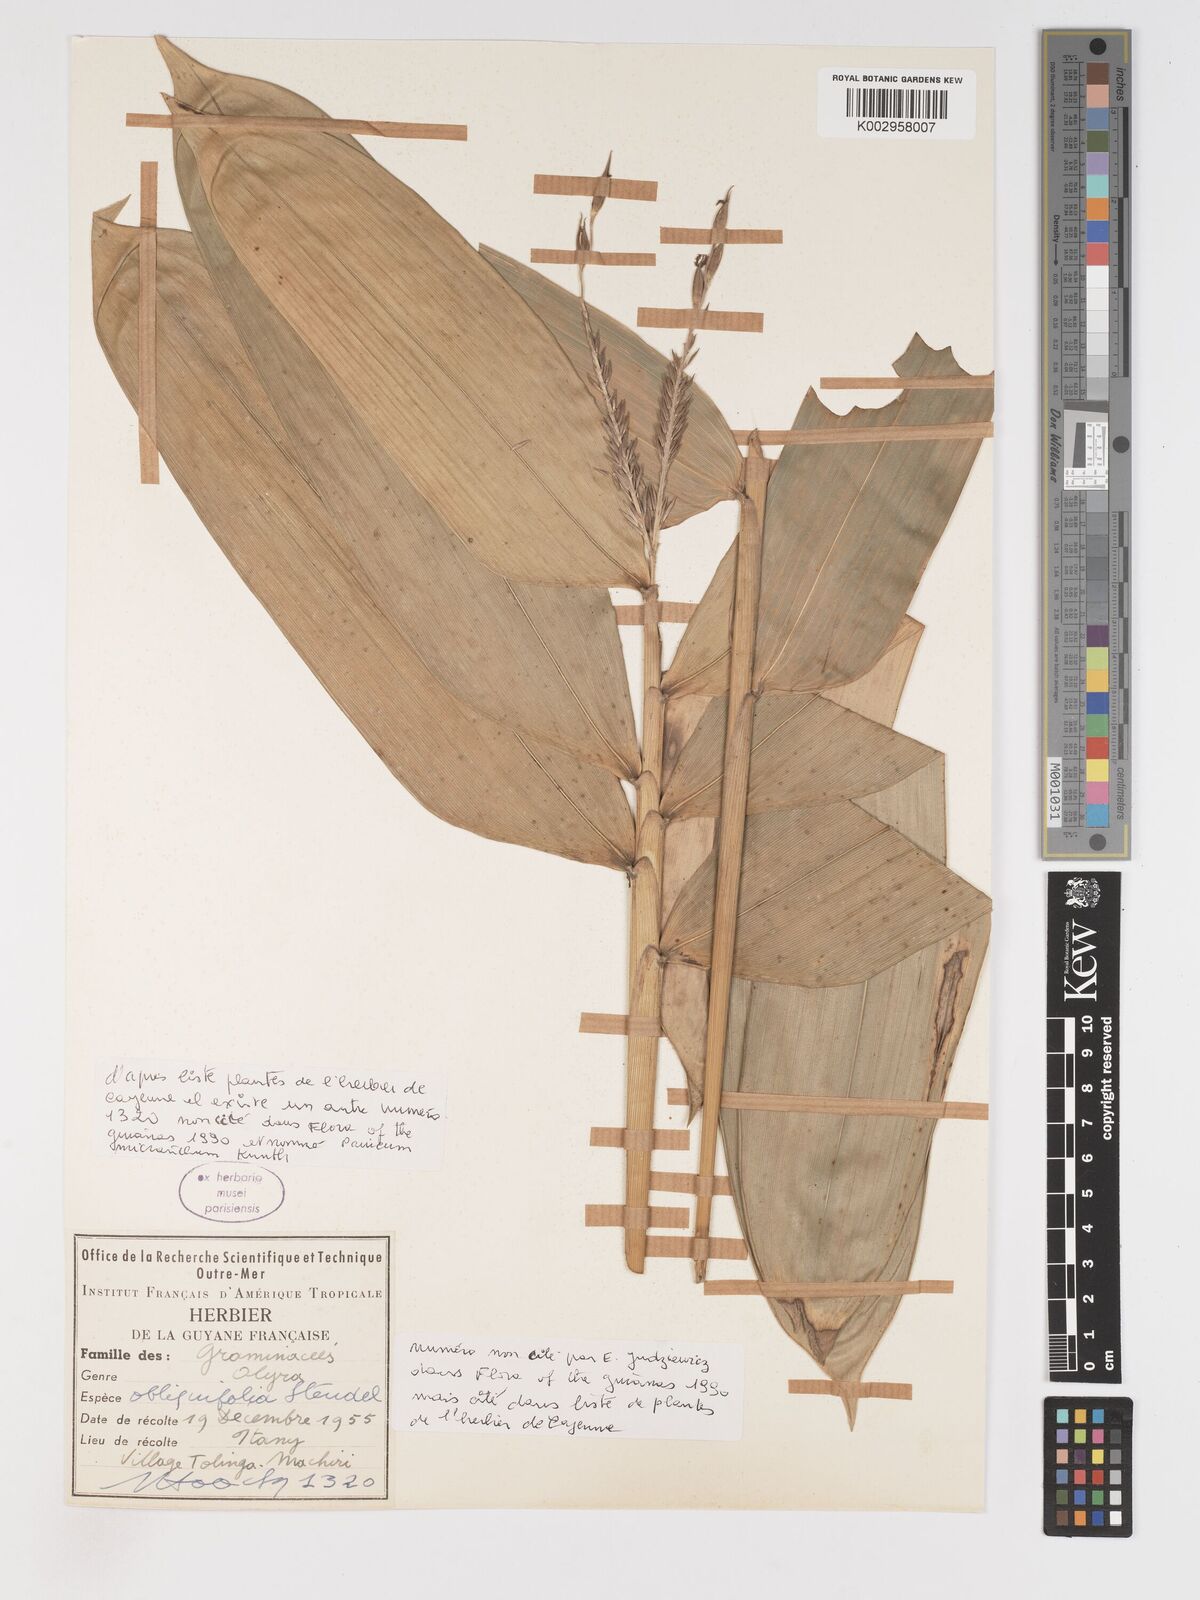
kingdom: Plantae
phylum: Tracheophyta
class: Liliopsida
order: Poales
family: Poaceae
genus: Olyra
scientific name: Olyra obliquifolia
